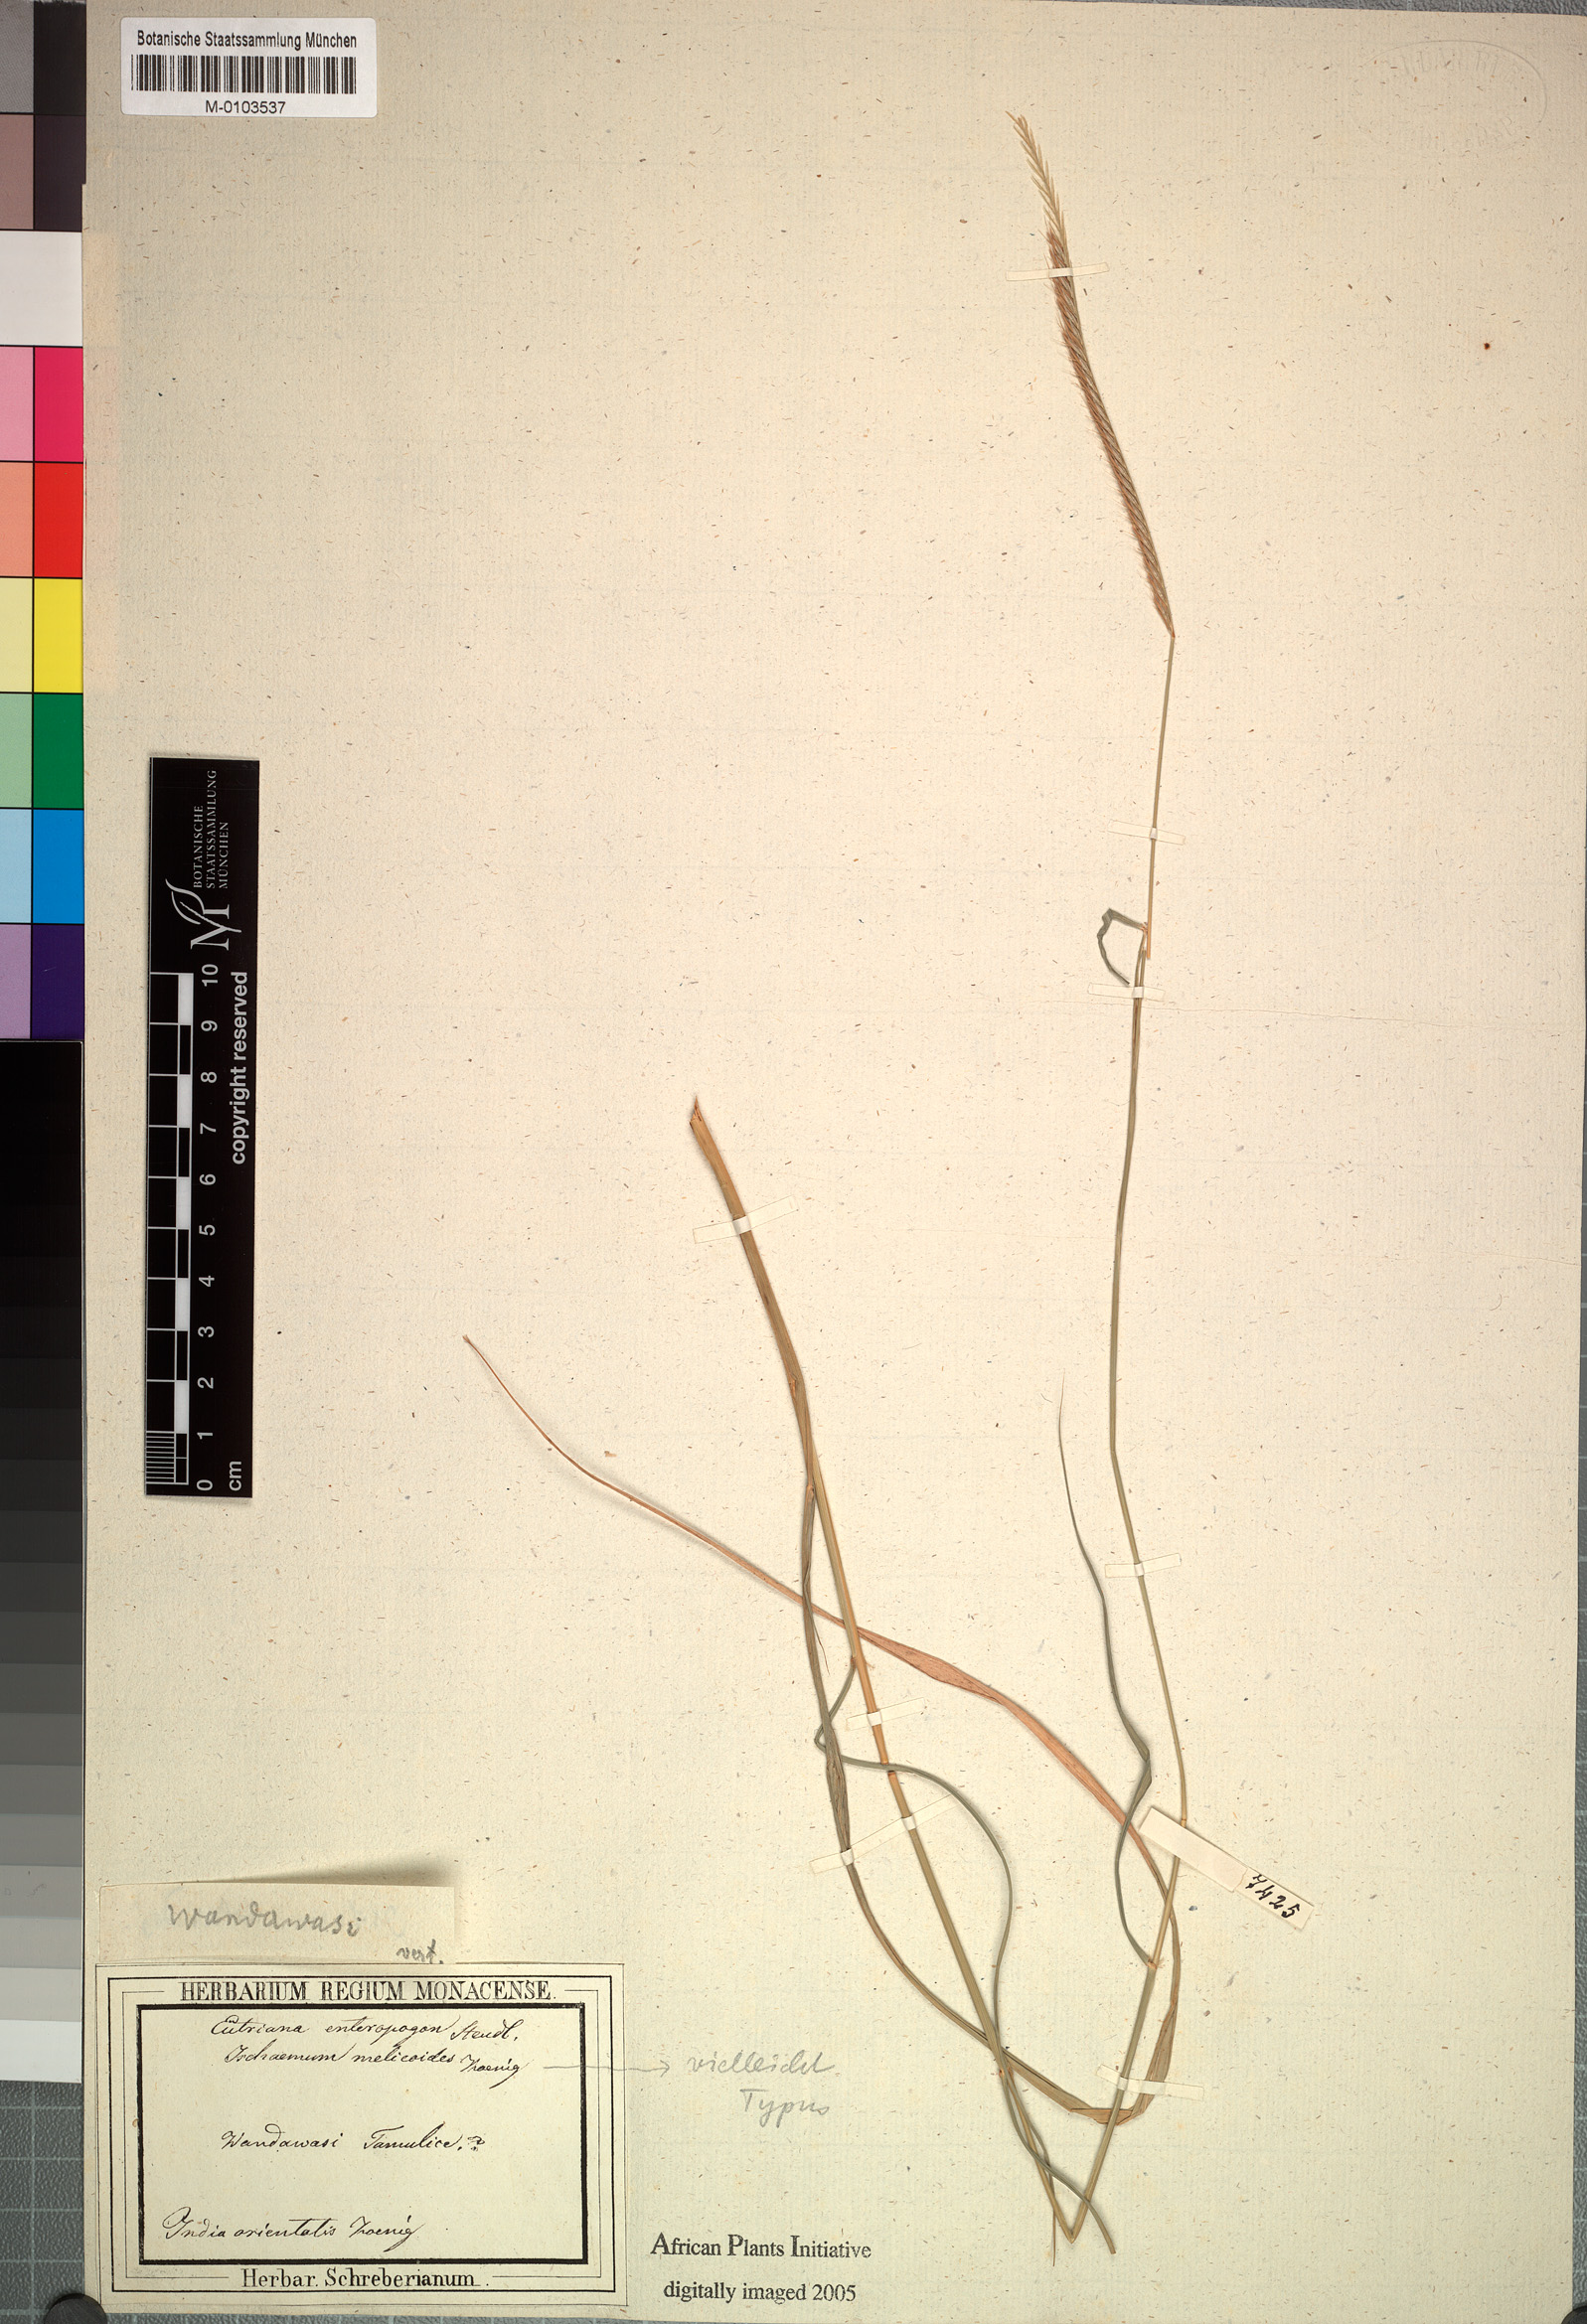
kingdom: Plantae
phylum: Tracheophyta
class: Liliopsida
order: Poales
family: Poaceae
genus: Enteropogon
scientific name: Enteropogon monostachyos
